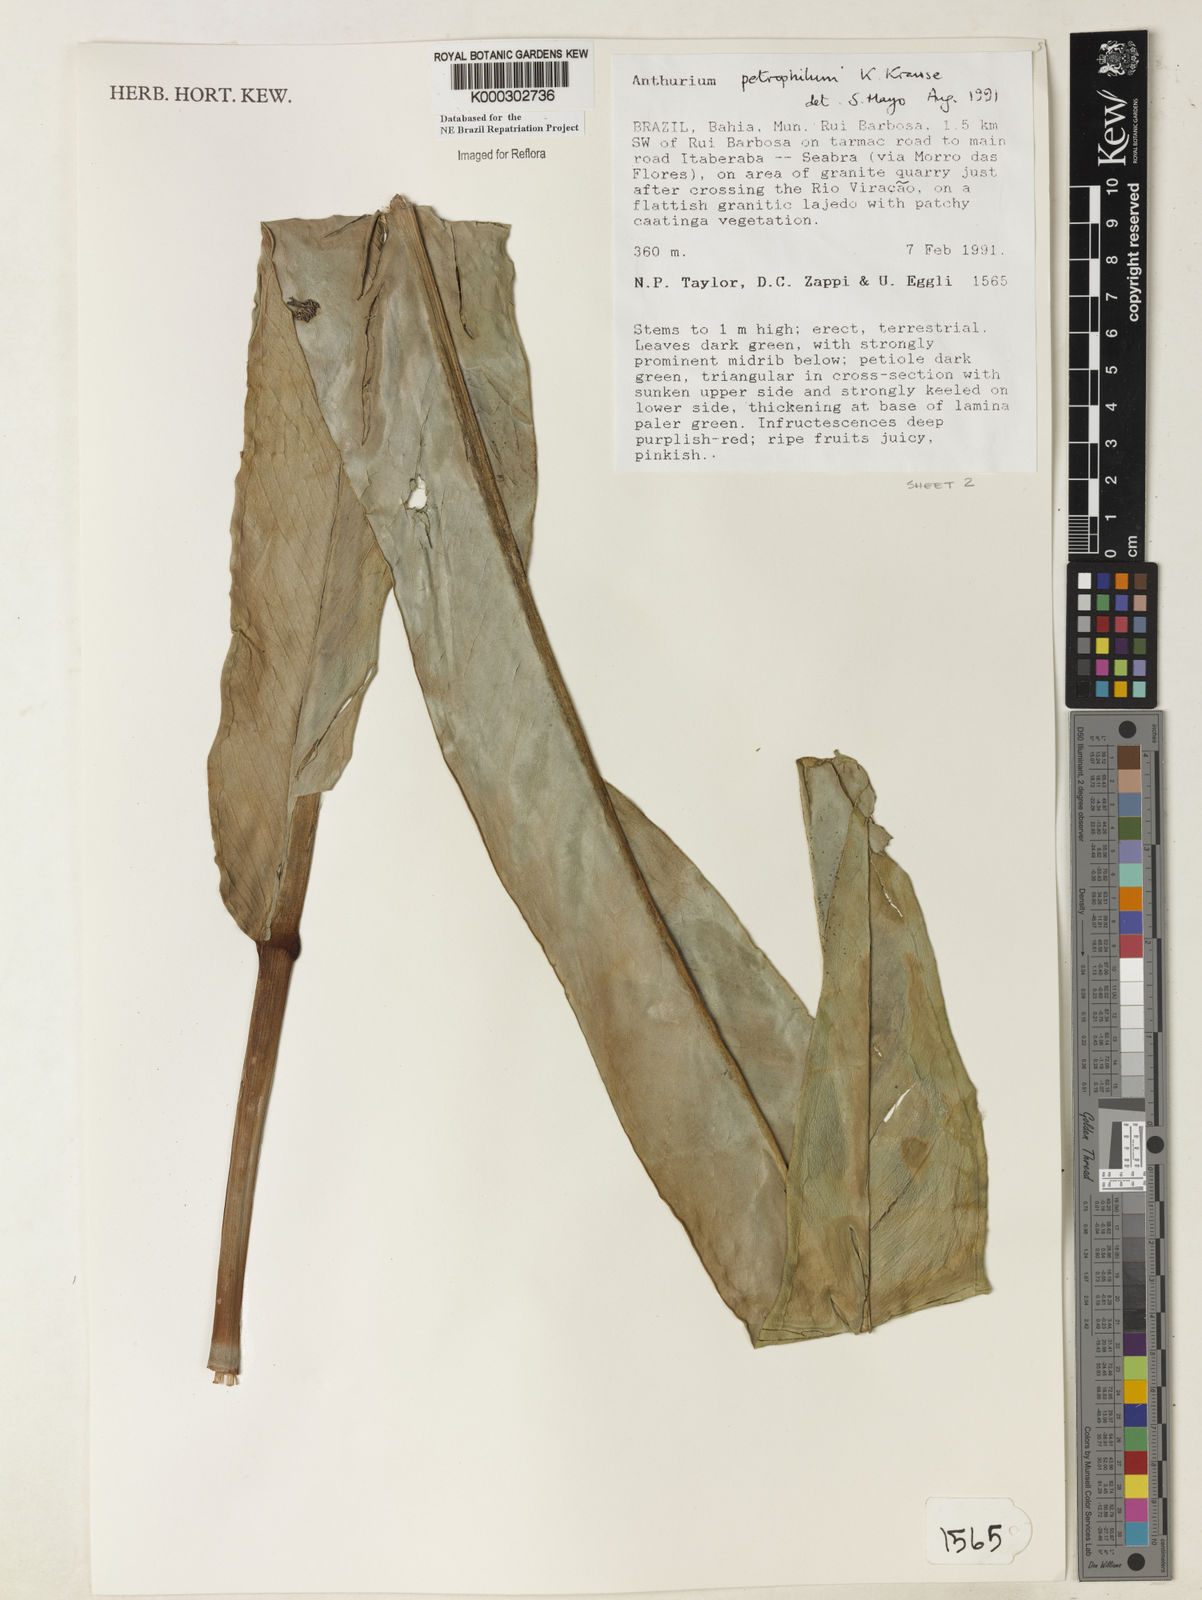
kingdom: Plantae
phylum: Tracheophyta
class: Liliopsida
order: Alismatales
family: Araceae
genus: Anthurium
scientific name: Anthurium petrophilum
